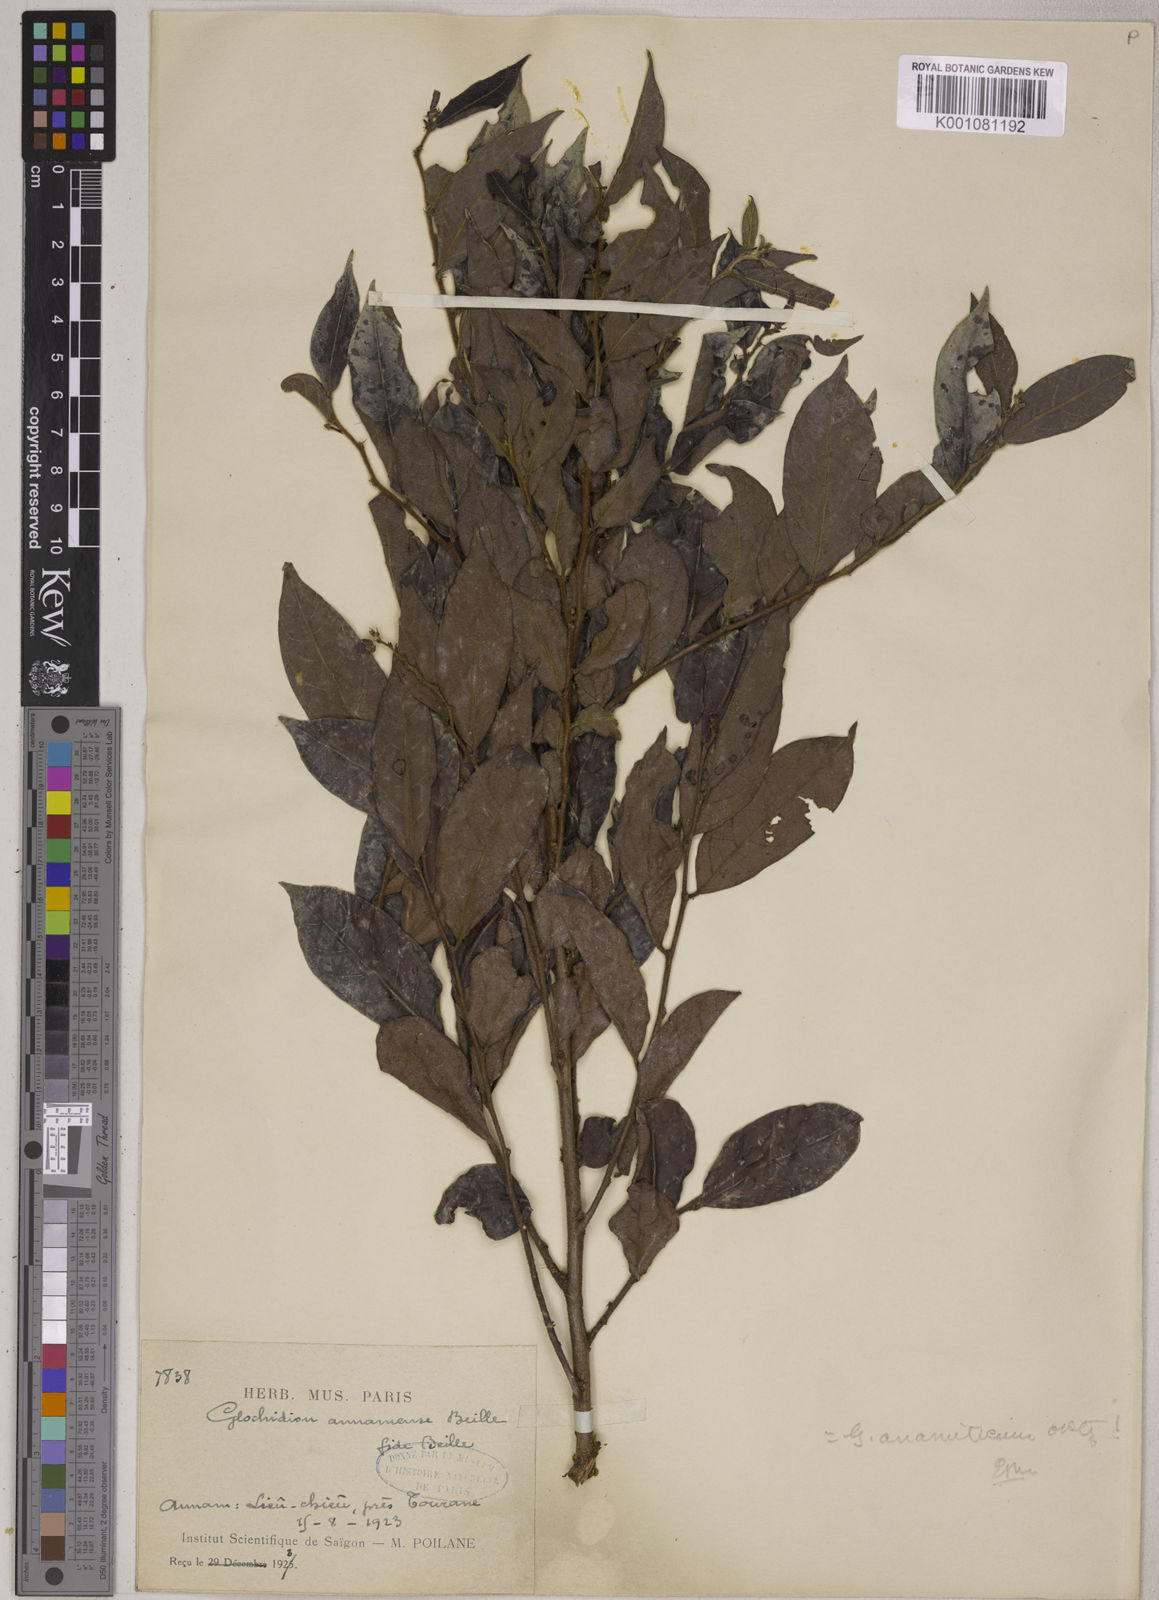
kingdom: Plantae
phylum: Tracheophyta
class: Magnoliopsida
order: Malpighiales
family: Phyllanthaceae
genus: Glochidion
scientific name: Glochidion anamiticum
